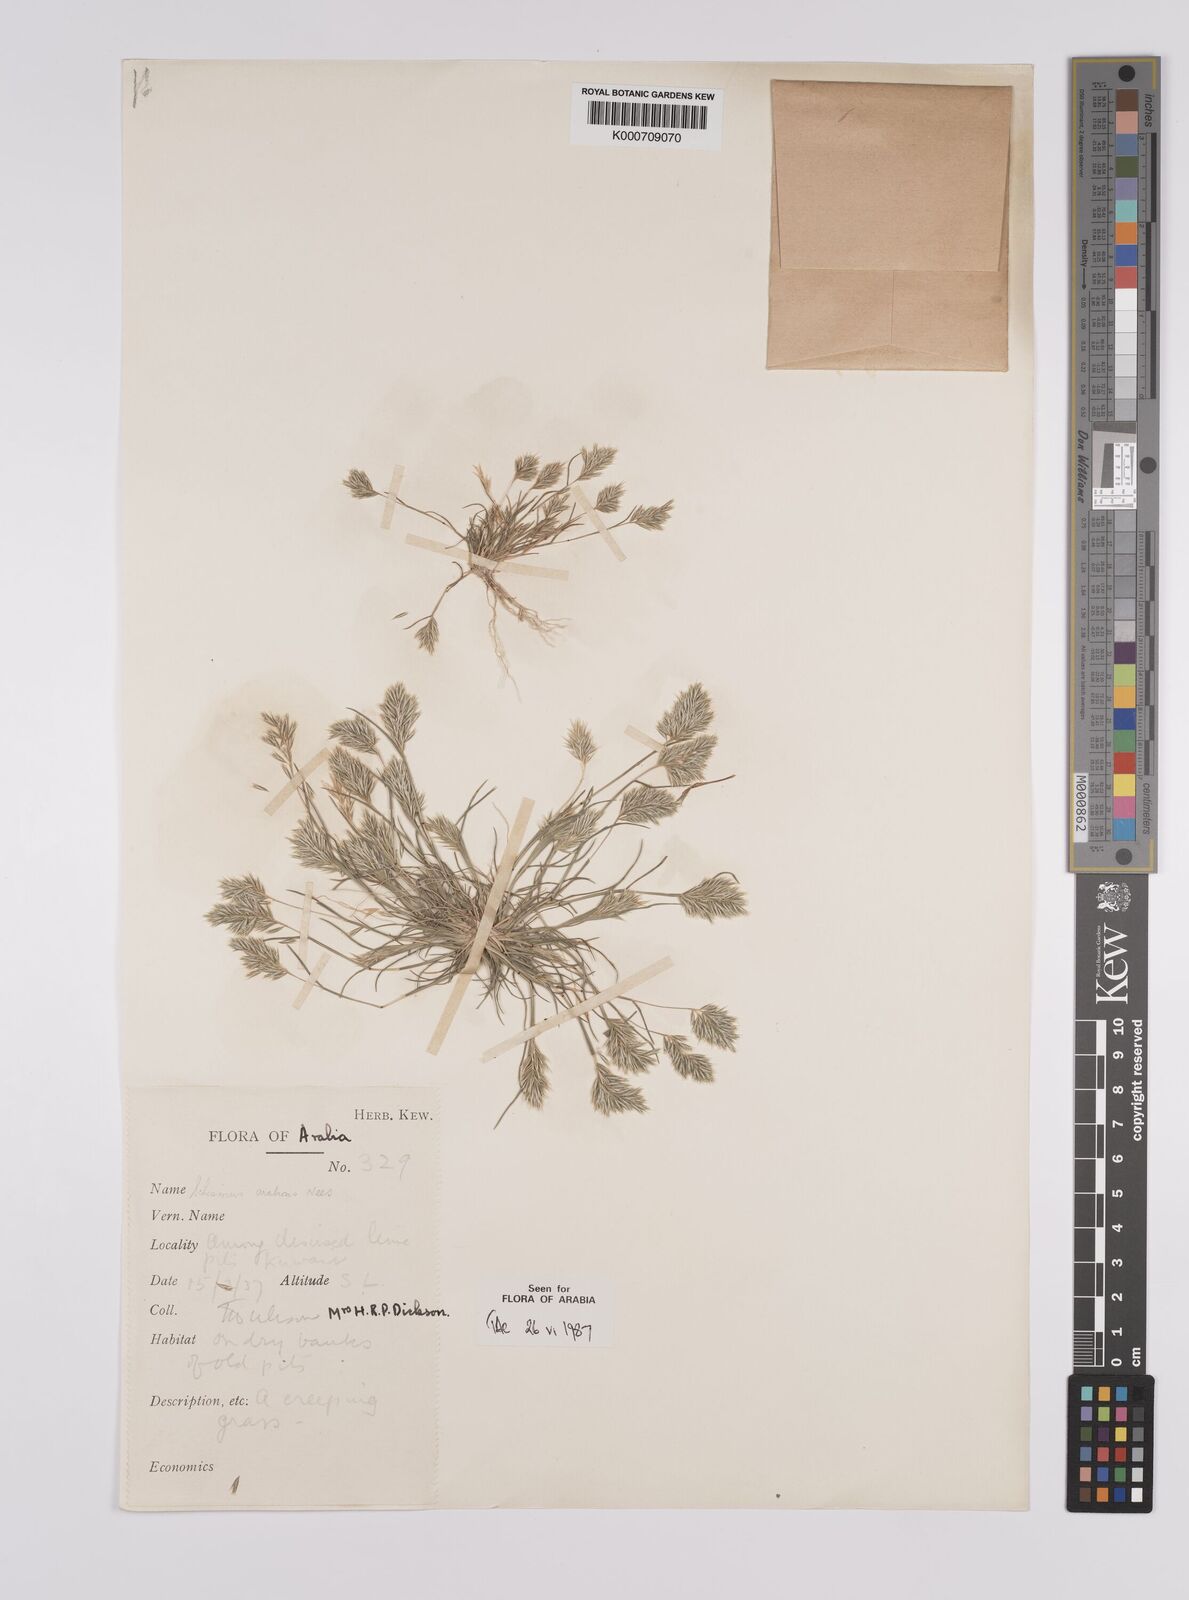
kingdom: Plantae
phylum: Tracheophyta
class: Liliopsida
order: Poales
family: Poaceae
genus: Schismus
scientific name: Schismus arabicus
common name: Arabian schismus
